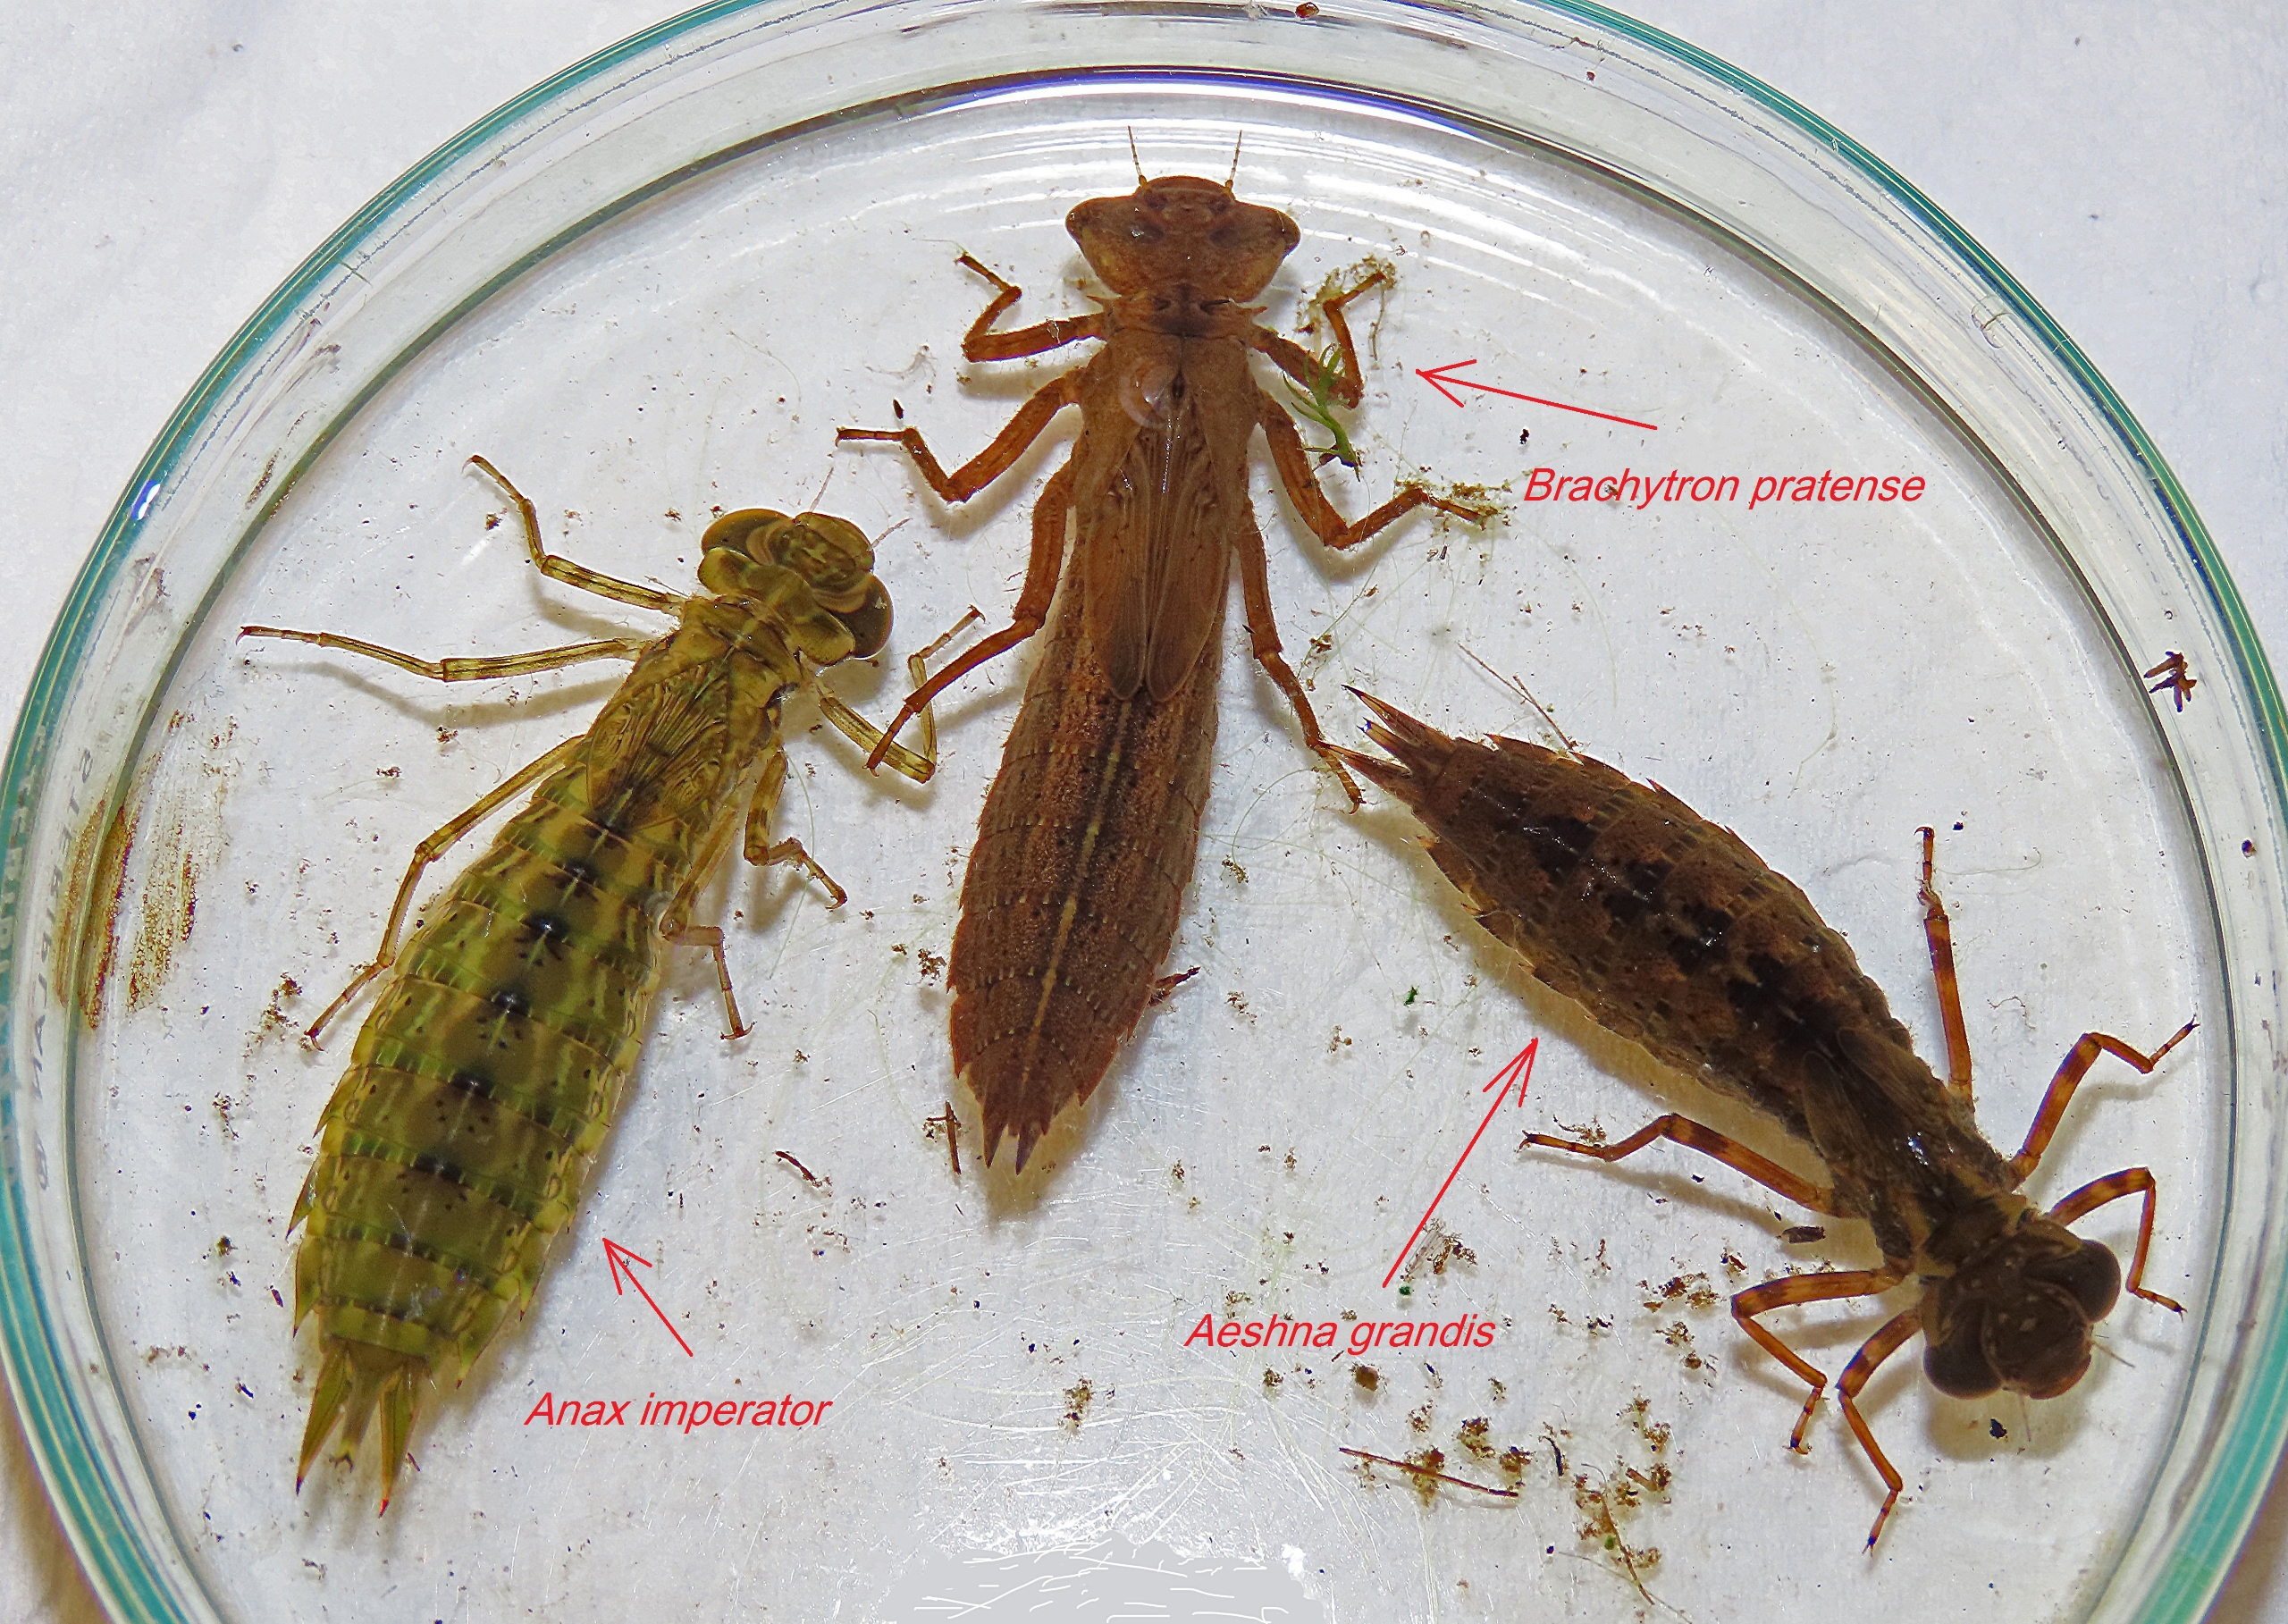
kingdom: Animalia
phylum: Arthropoda
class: Insecta
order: Odonata
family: Aeshnidae
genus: Anax
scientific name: Anax imperator
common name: Stor kejserguldsmed
